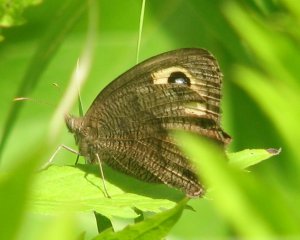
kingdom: Animalia
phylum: Arthropoda
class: Insecta
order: Lepidoptera
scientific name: Lepidoptera
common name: Butterflies
